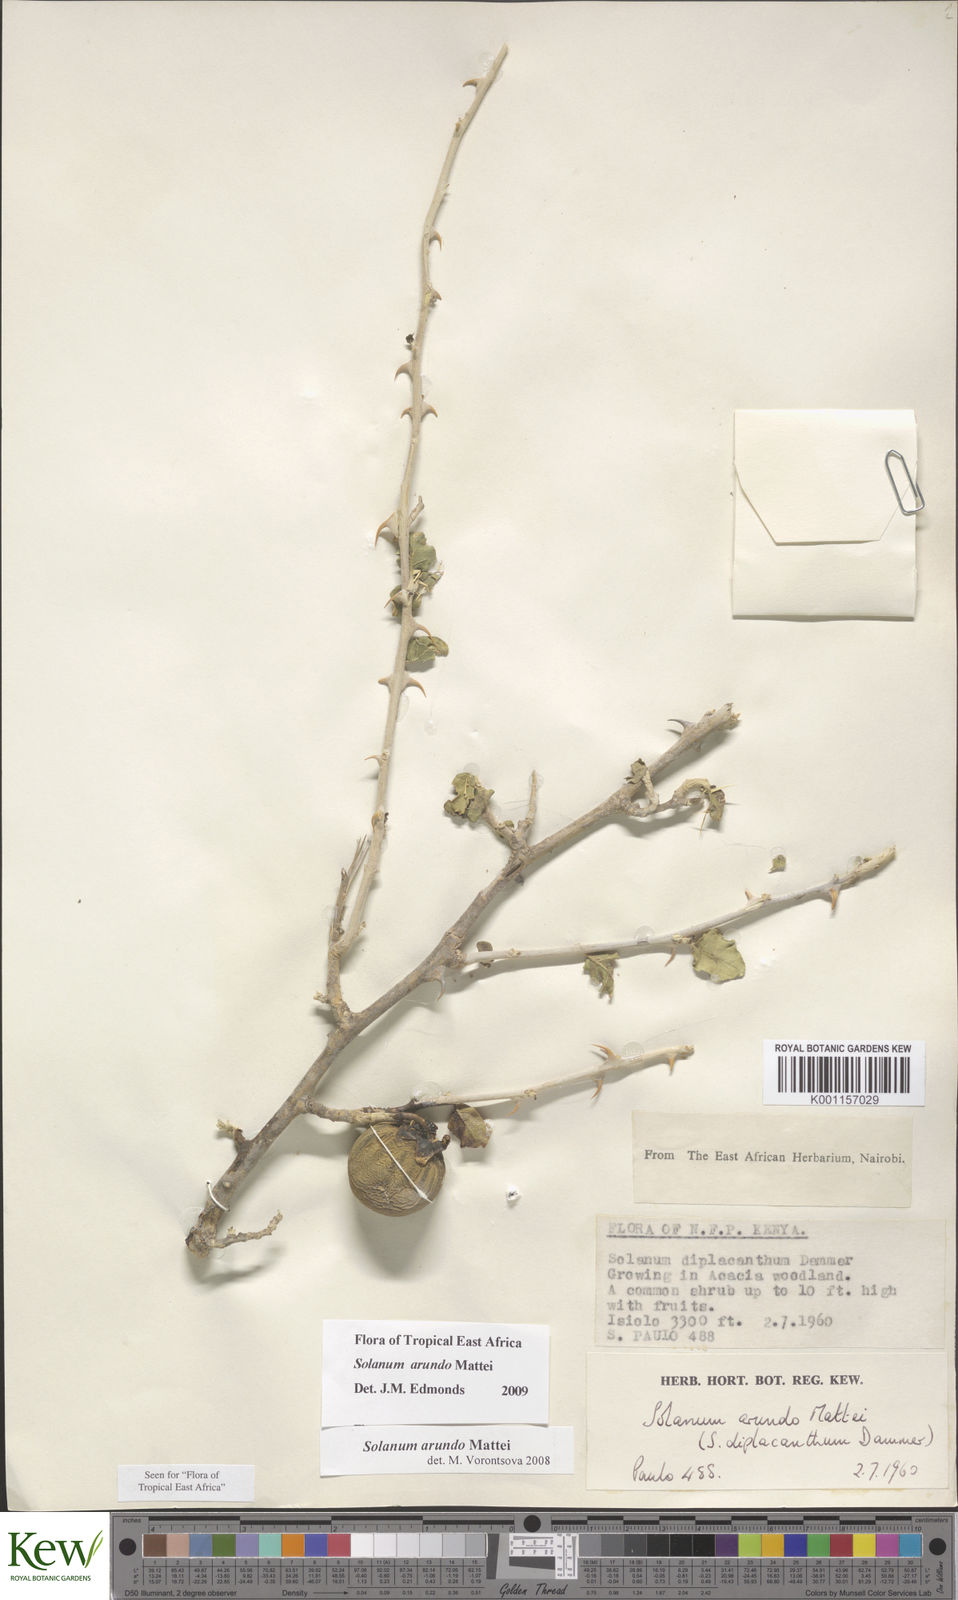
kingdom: Plantae
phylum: Tracheophyta
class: Magnoliopsida
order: Solanales
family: Solanaceae
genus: Solanum
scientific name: Solanum arundo
